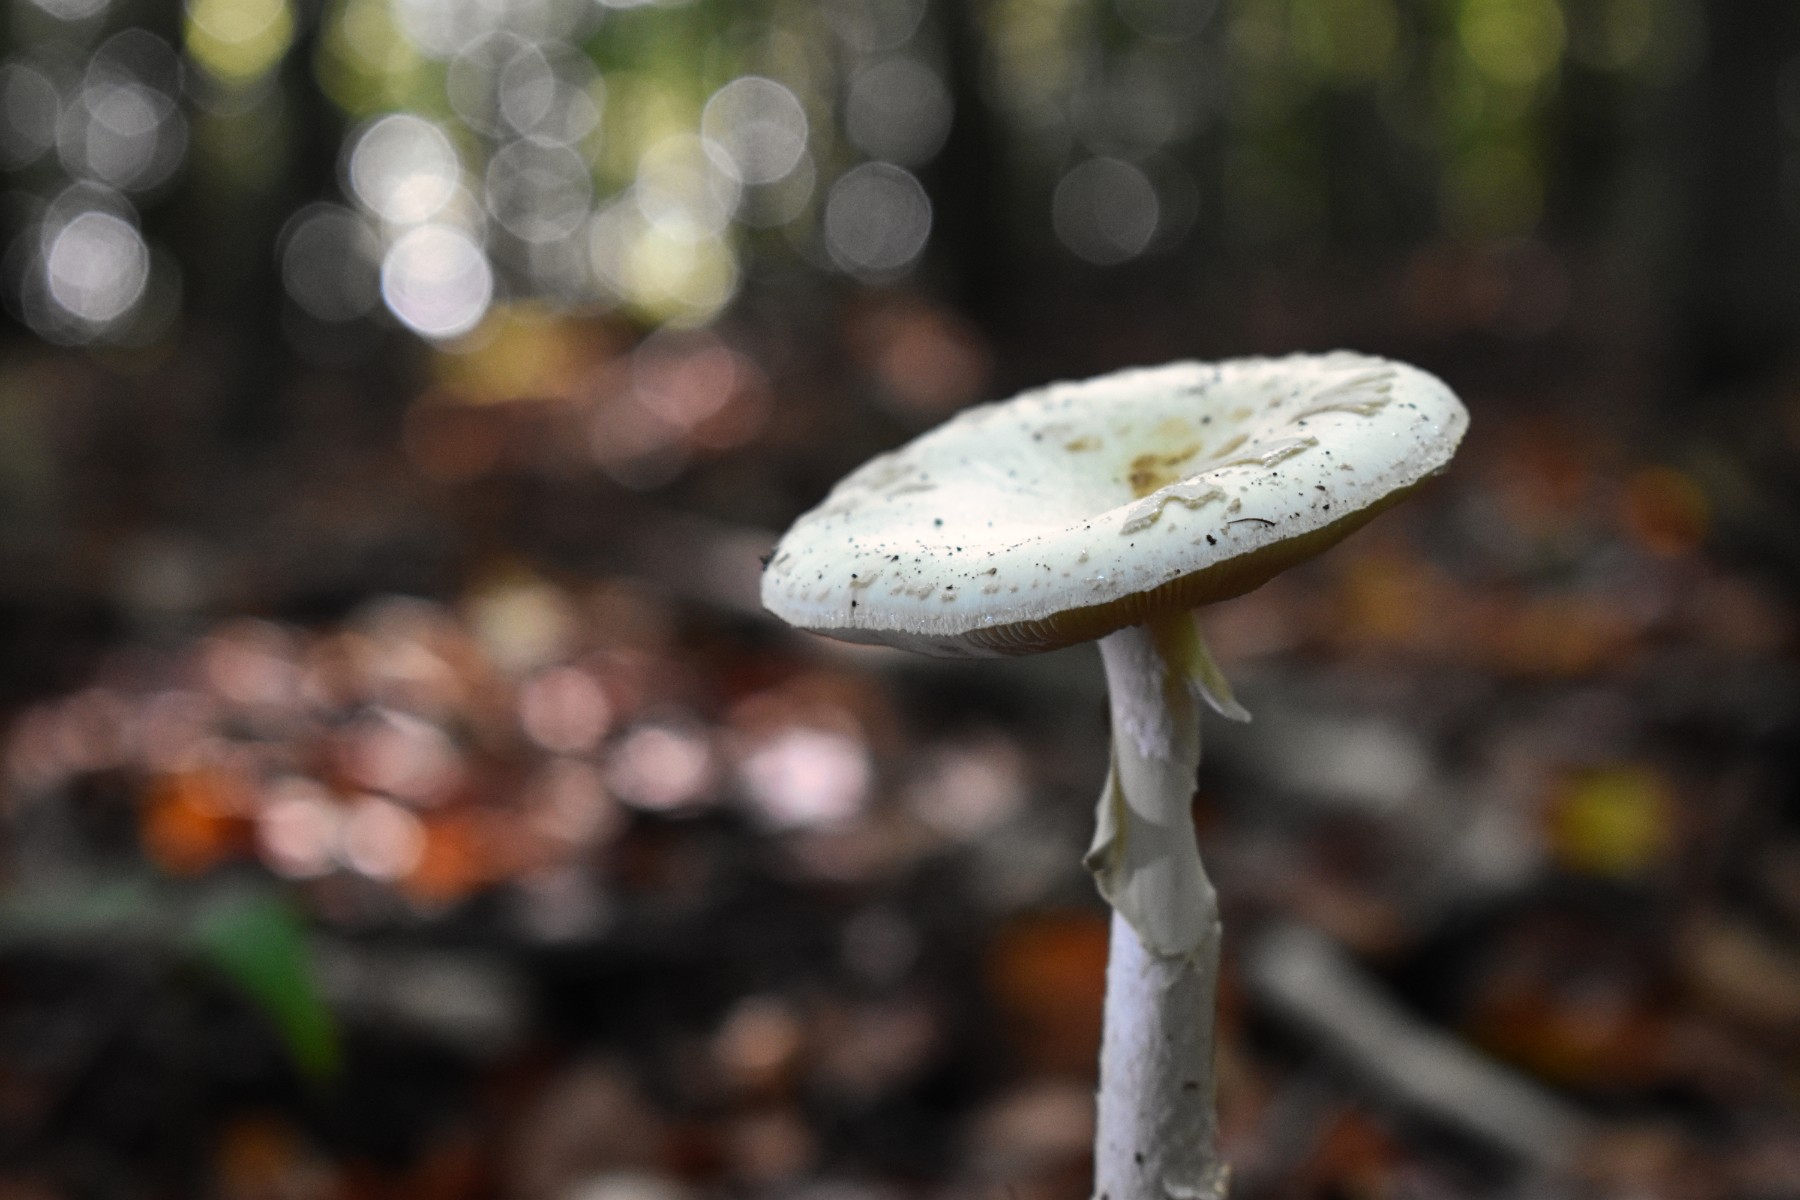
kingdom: Fungi
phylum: Basidiomycota
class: Agaricomycetes
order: Agaricales
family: Amanitaceae
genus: Amanita
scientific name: Amanita citrina
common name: False death-cap
